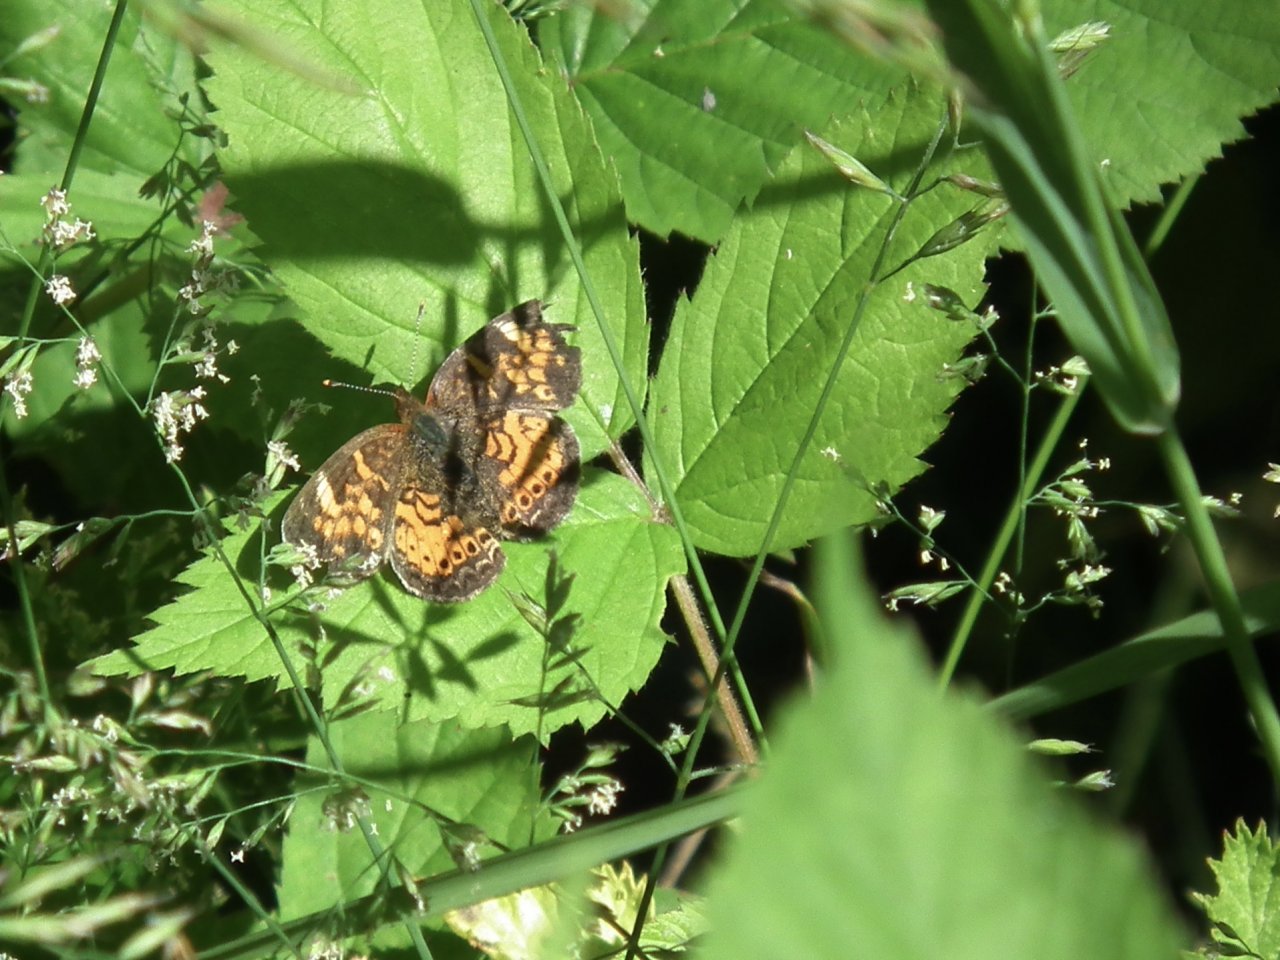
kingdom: Animalia
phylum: Arthropoda
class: Insecta
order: Lepidoptera
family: Nymphalidae
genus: Phyciodes
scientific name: Phyciodes tharos
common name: Northern Crescent
